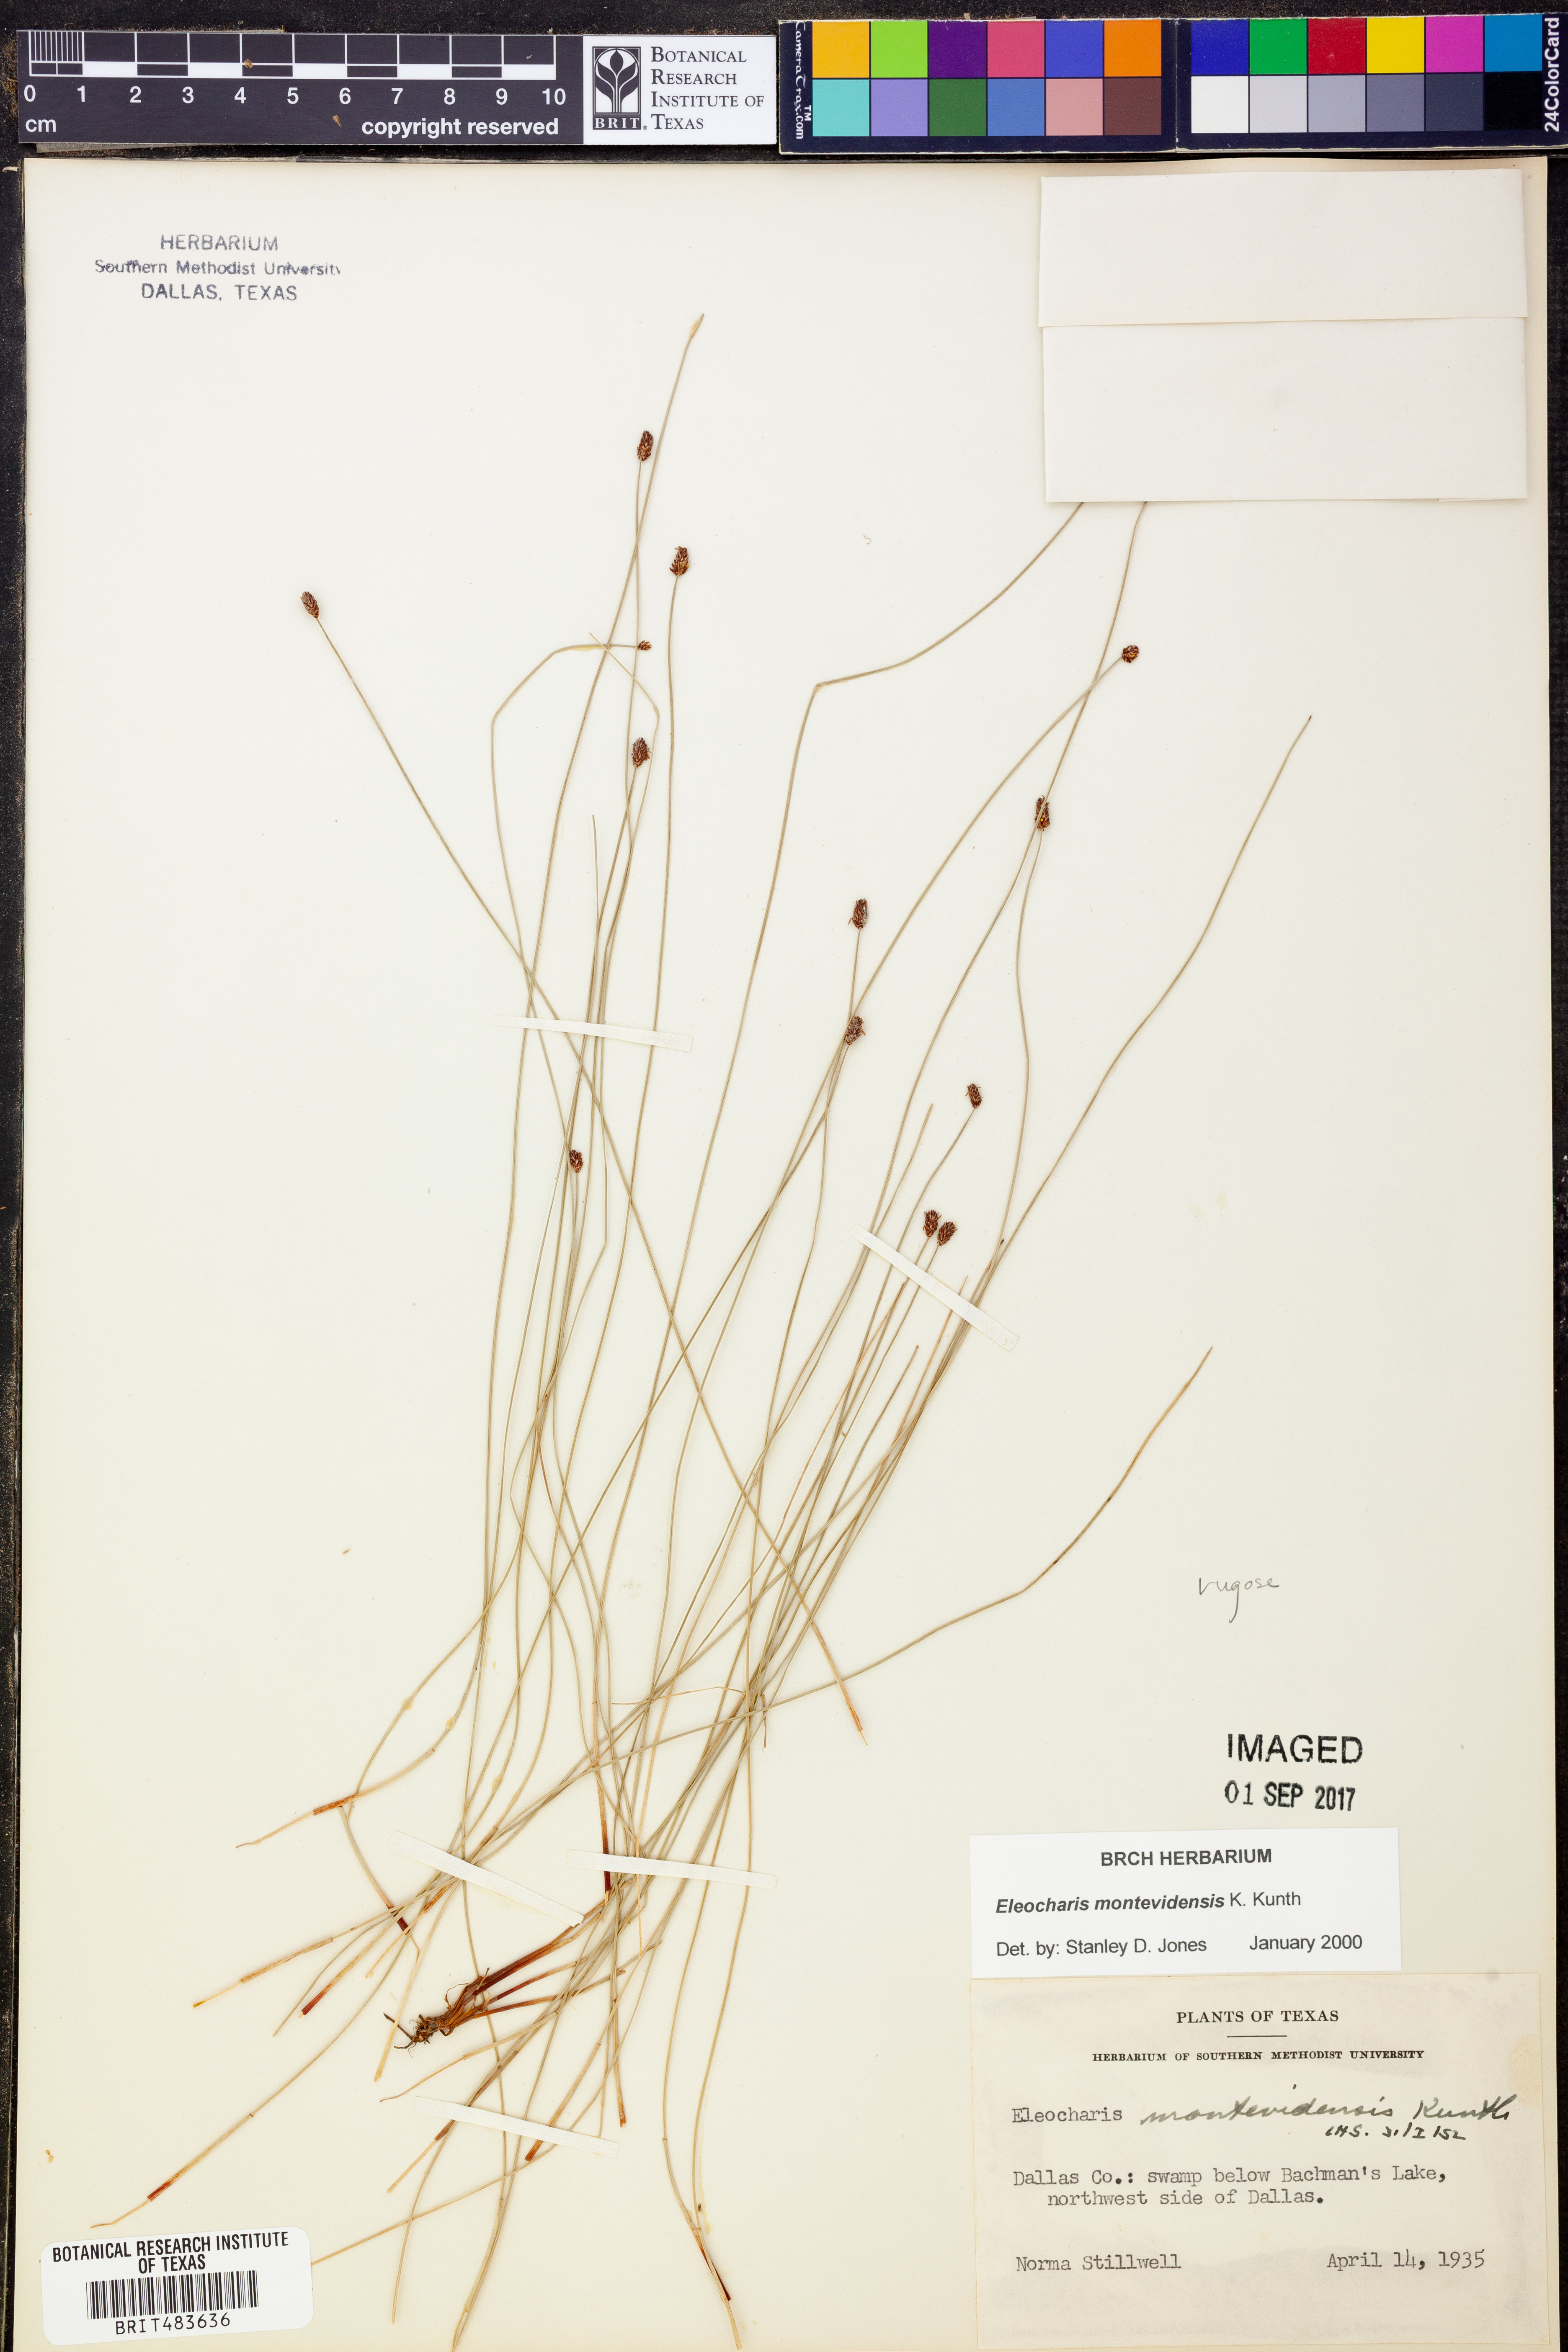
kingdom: Plantae
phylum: Tracheophyta
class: Liliopsida
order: Poales
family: Cyperaceae
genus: Eleocharis
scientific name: Eleocharis montevidensis
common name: Sand spike-rush
